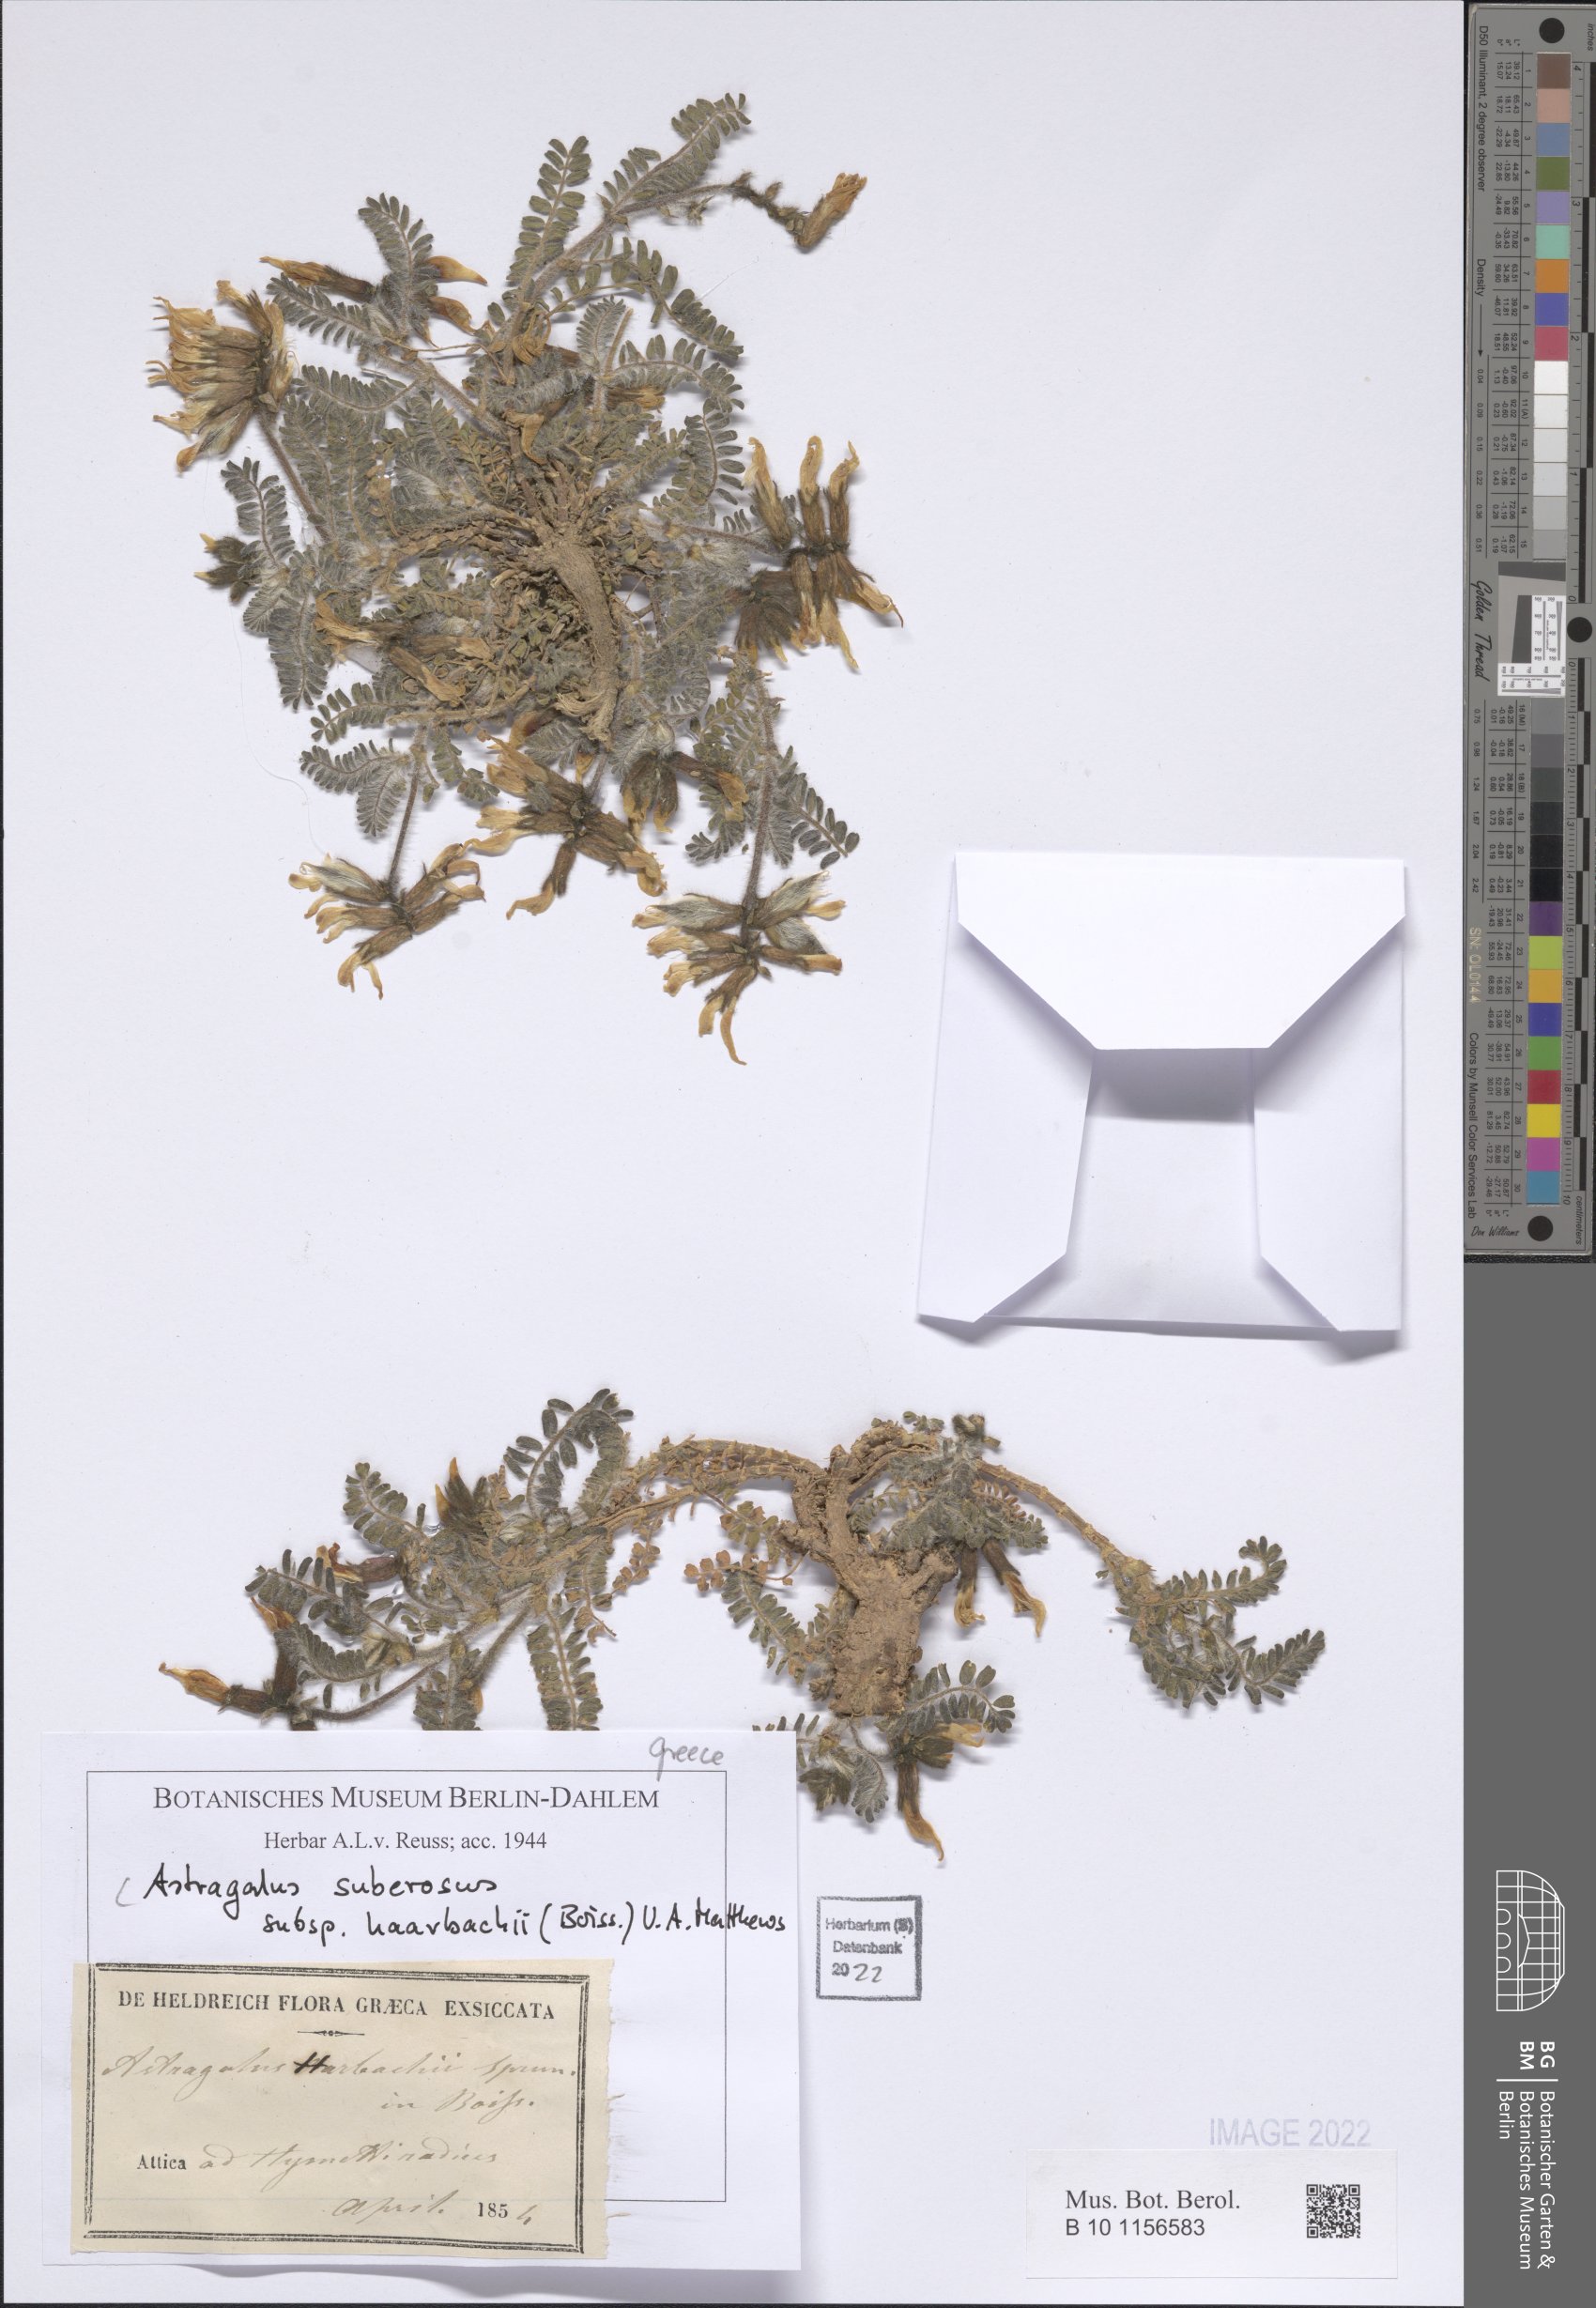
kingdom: Plantae
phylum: Tracheophyta
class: Magnoliopsida
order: Fabales
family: Fabaceae
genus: Astragalus
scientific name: Astragalus suberosus
